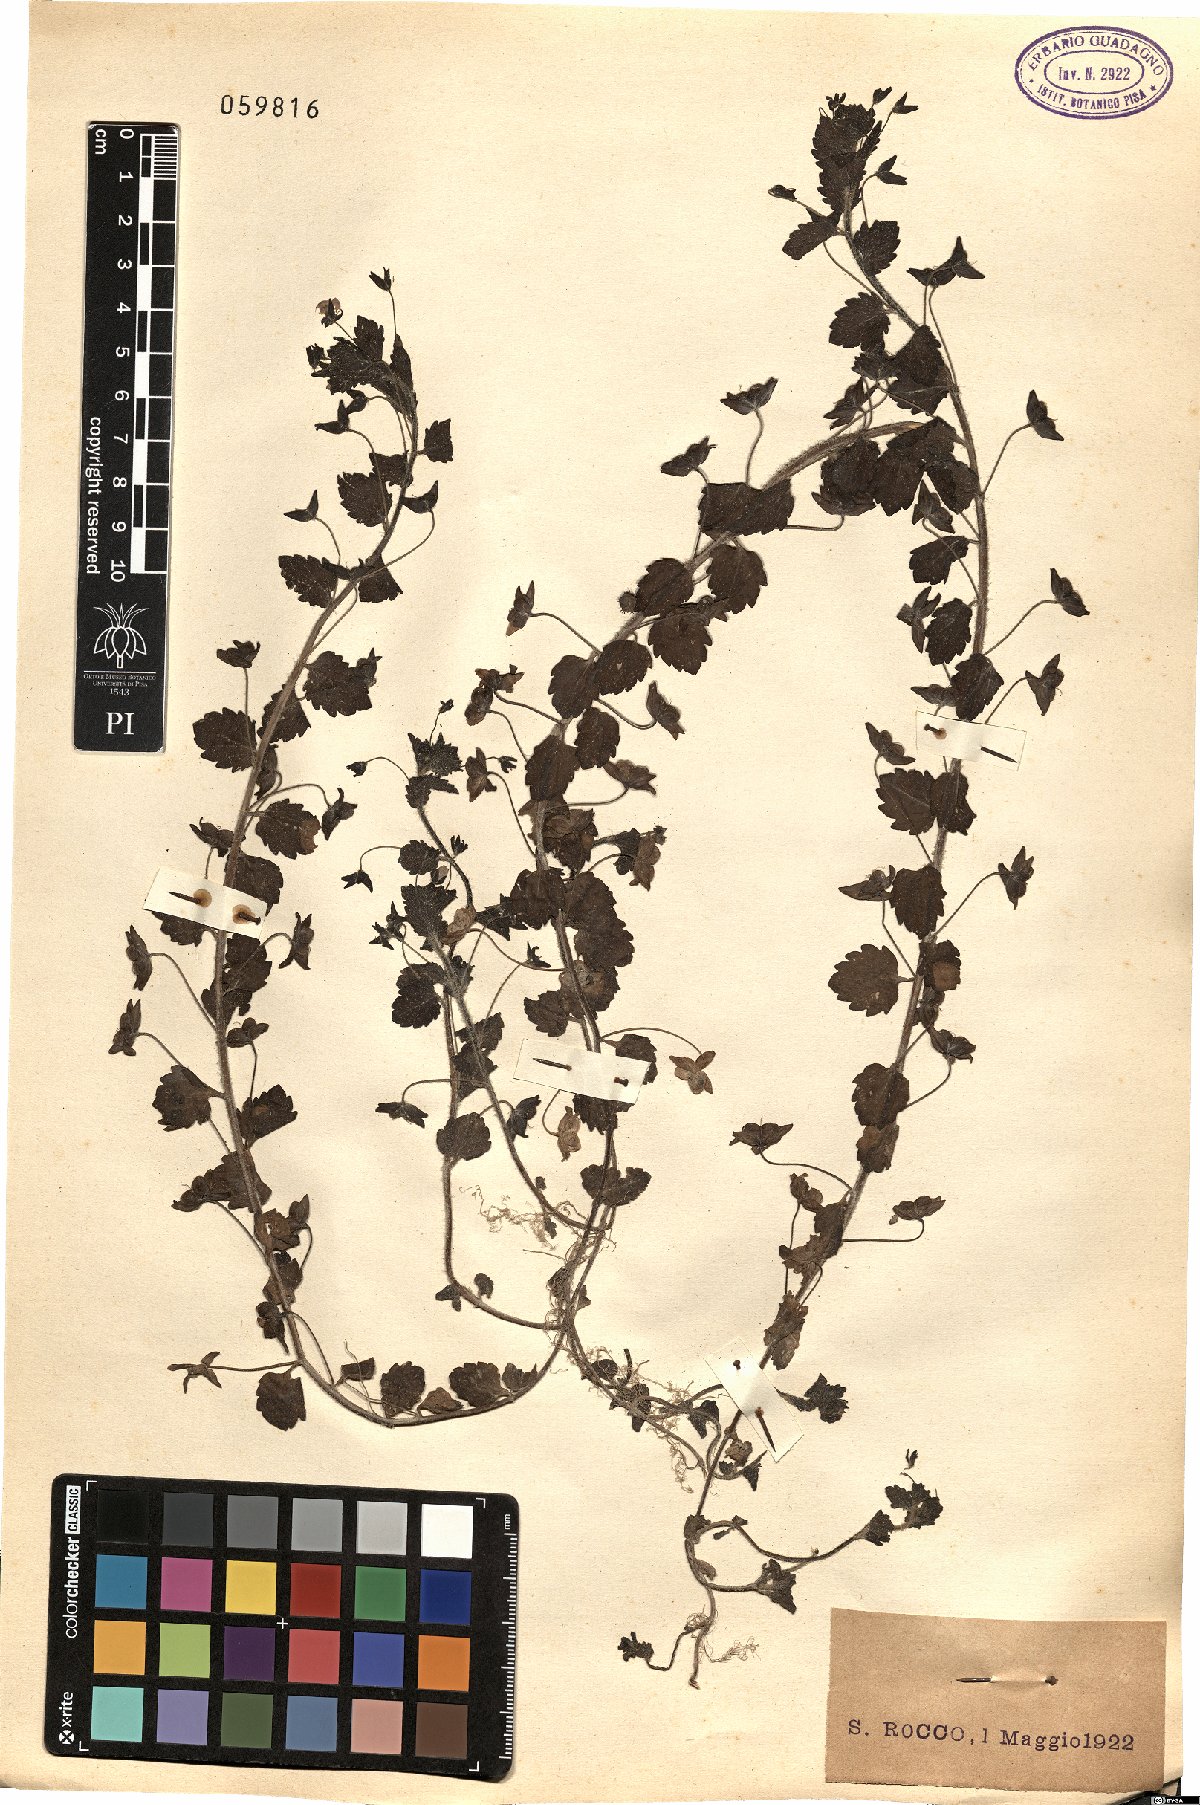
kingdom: Plantae
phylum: Tracheophyta
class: Magnoliopsida
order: Lamiales
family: Plantaginaceae
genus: Veronica
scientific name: Veronica
